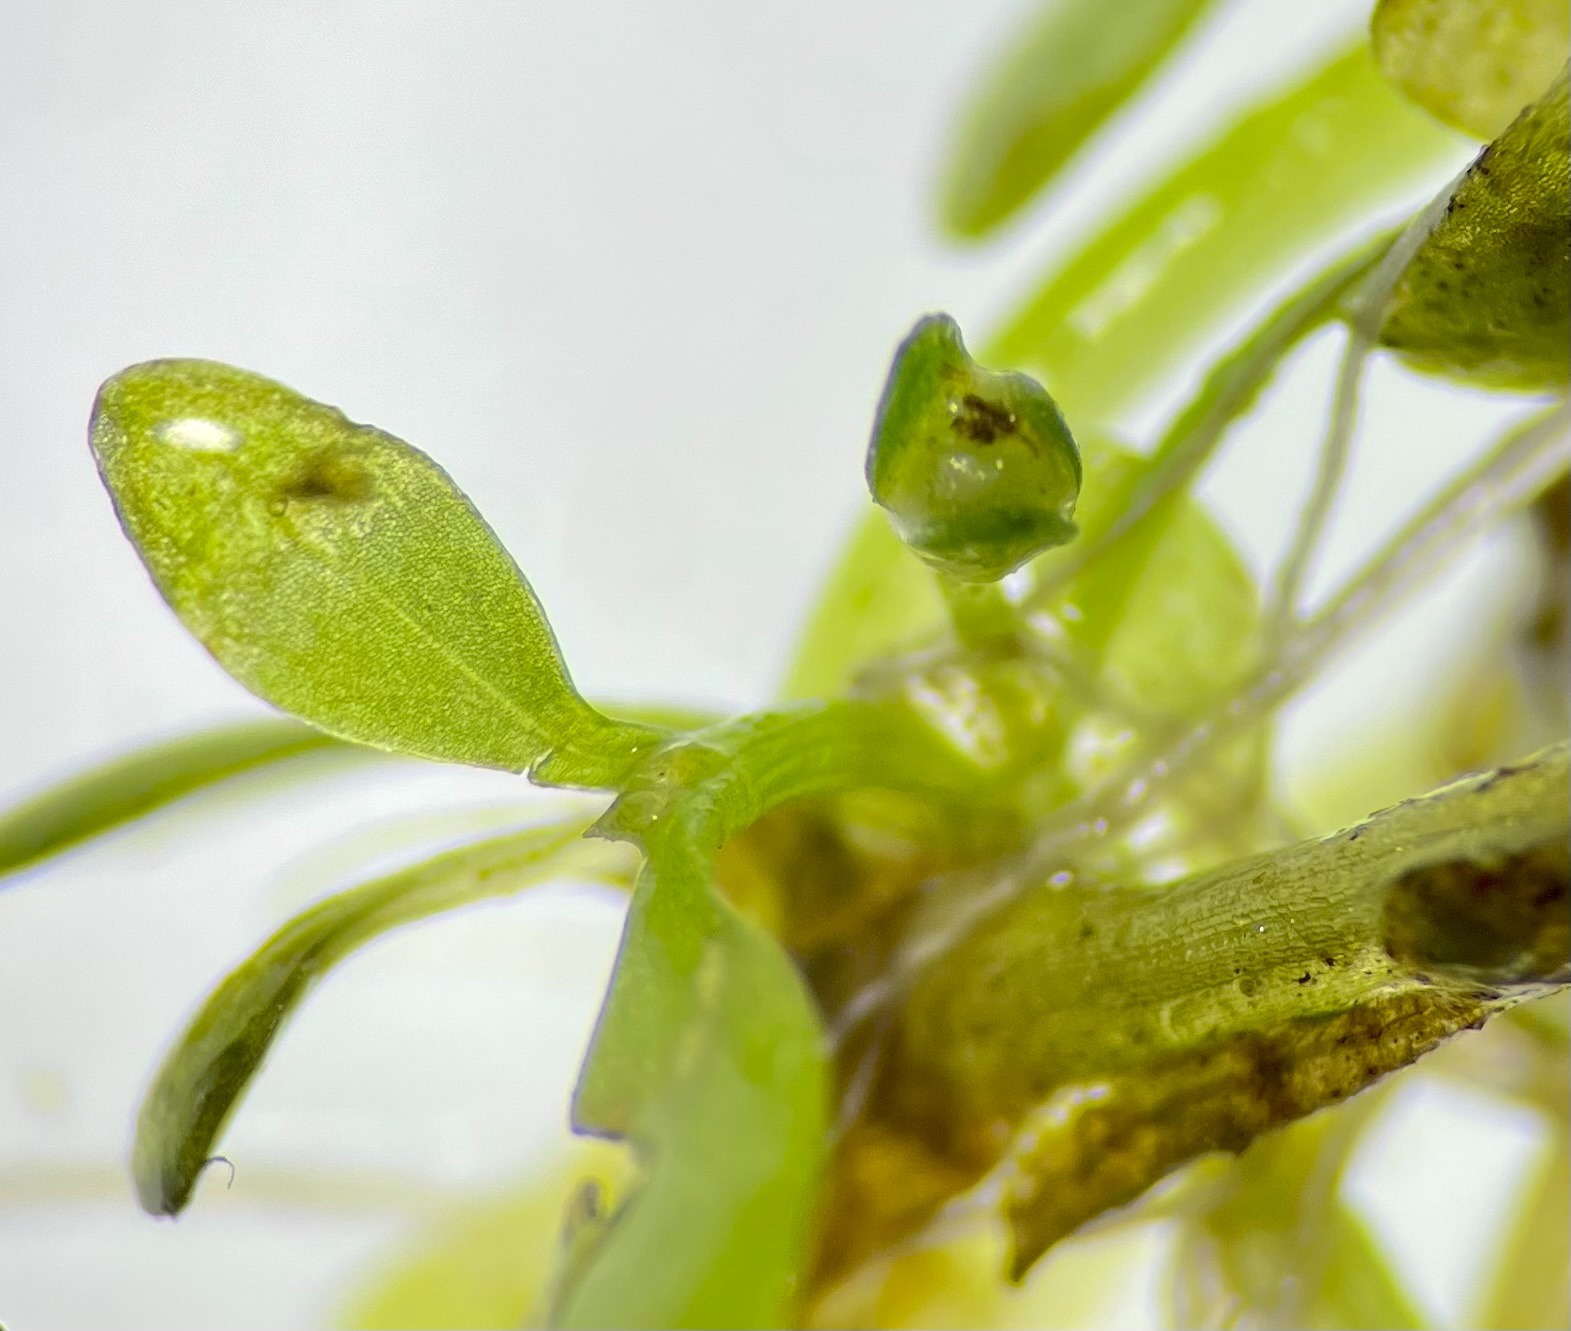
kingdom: Plantae
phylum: Tracheophyta
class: Magnoliopsida
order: Malpighiales
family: Elatinaceae
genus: Elatine
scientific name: Elatine hexandra
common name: Sekshannet bækarve
